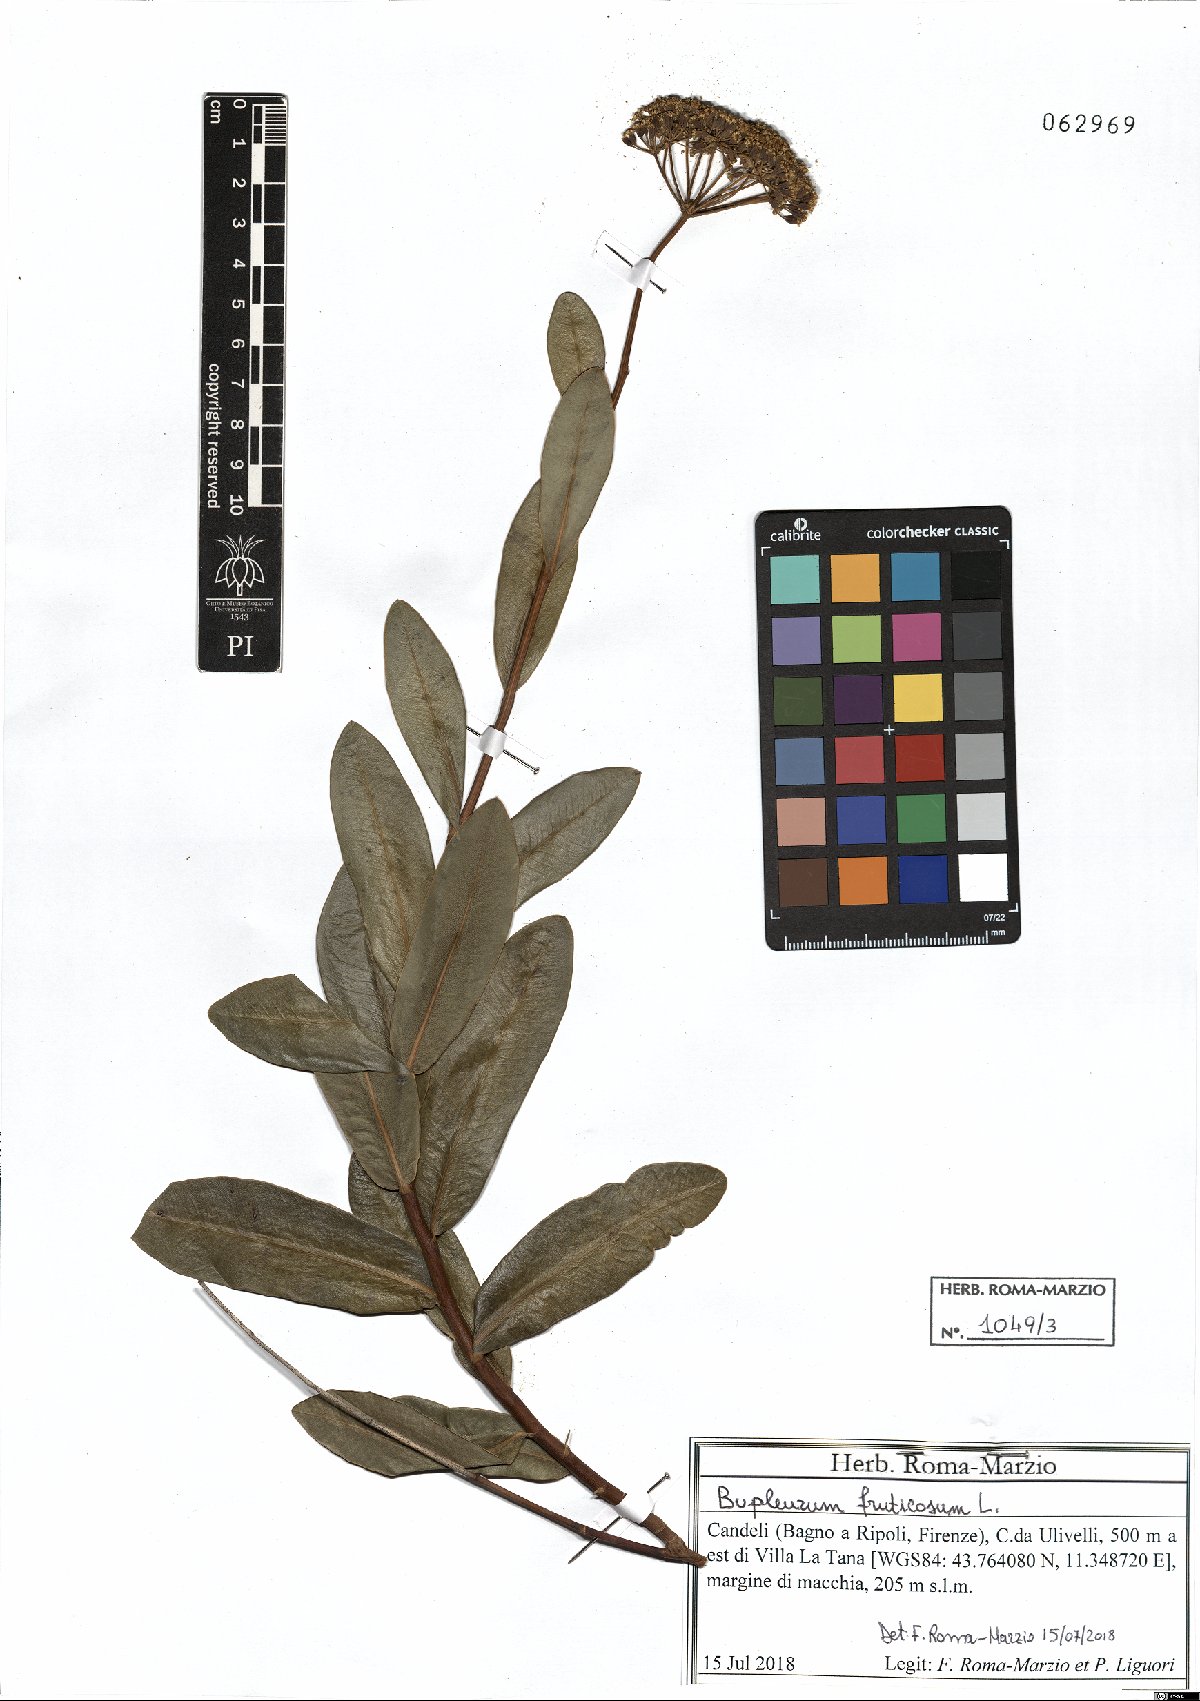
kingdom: Plantae
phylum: Tracheophyta
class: Magnoliopsida
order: Apiales
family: Apiaceae
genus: Bupleurum
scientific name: Bupleurum fruticosum
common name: Shrubby hare's-ear
